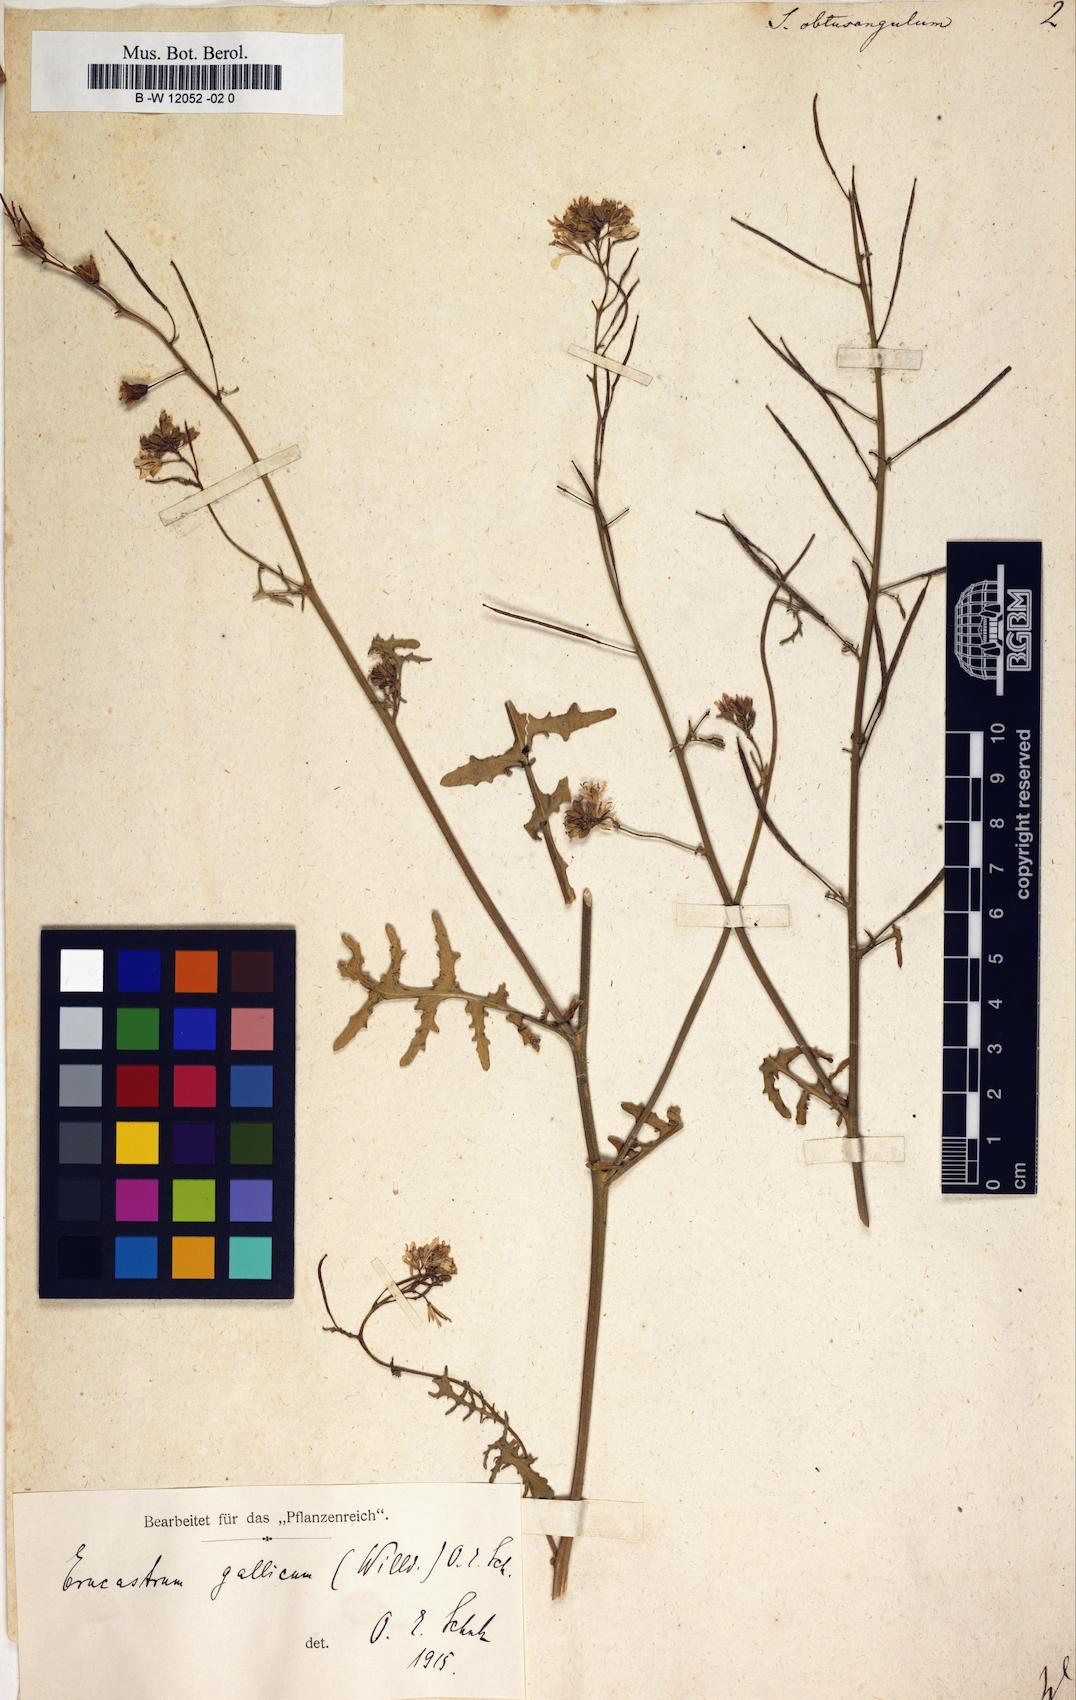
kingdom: Plantae
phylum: Tracheophyta
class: Magnoliopsida
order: Brassicales
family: Brassicaceae
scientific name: Brassicaceae
